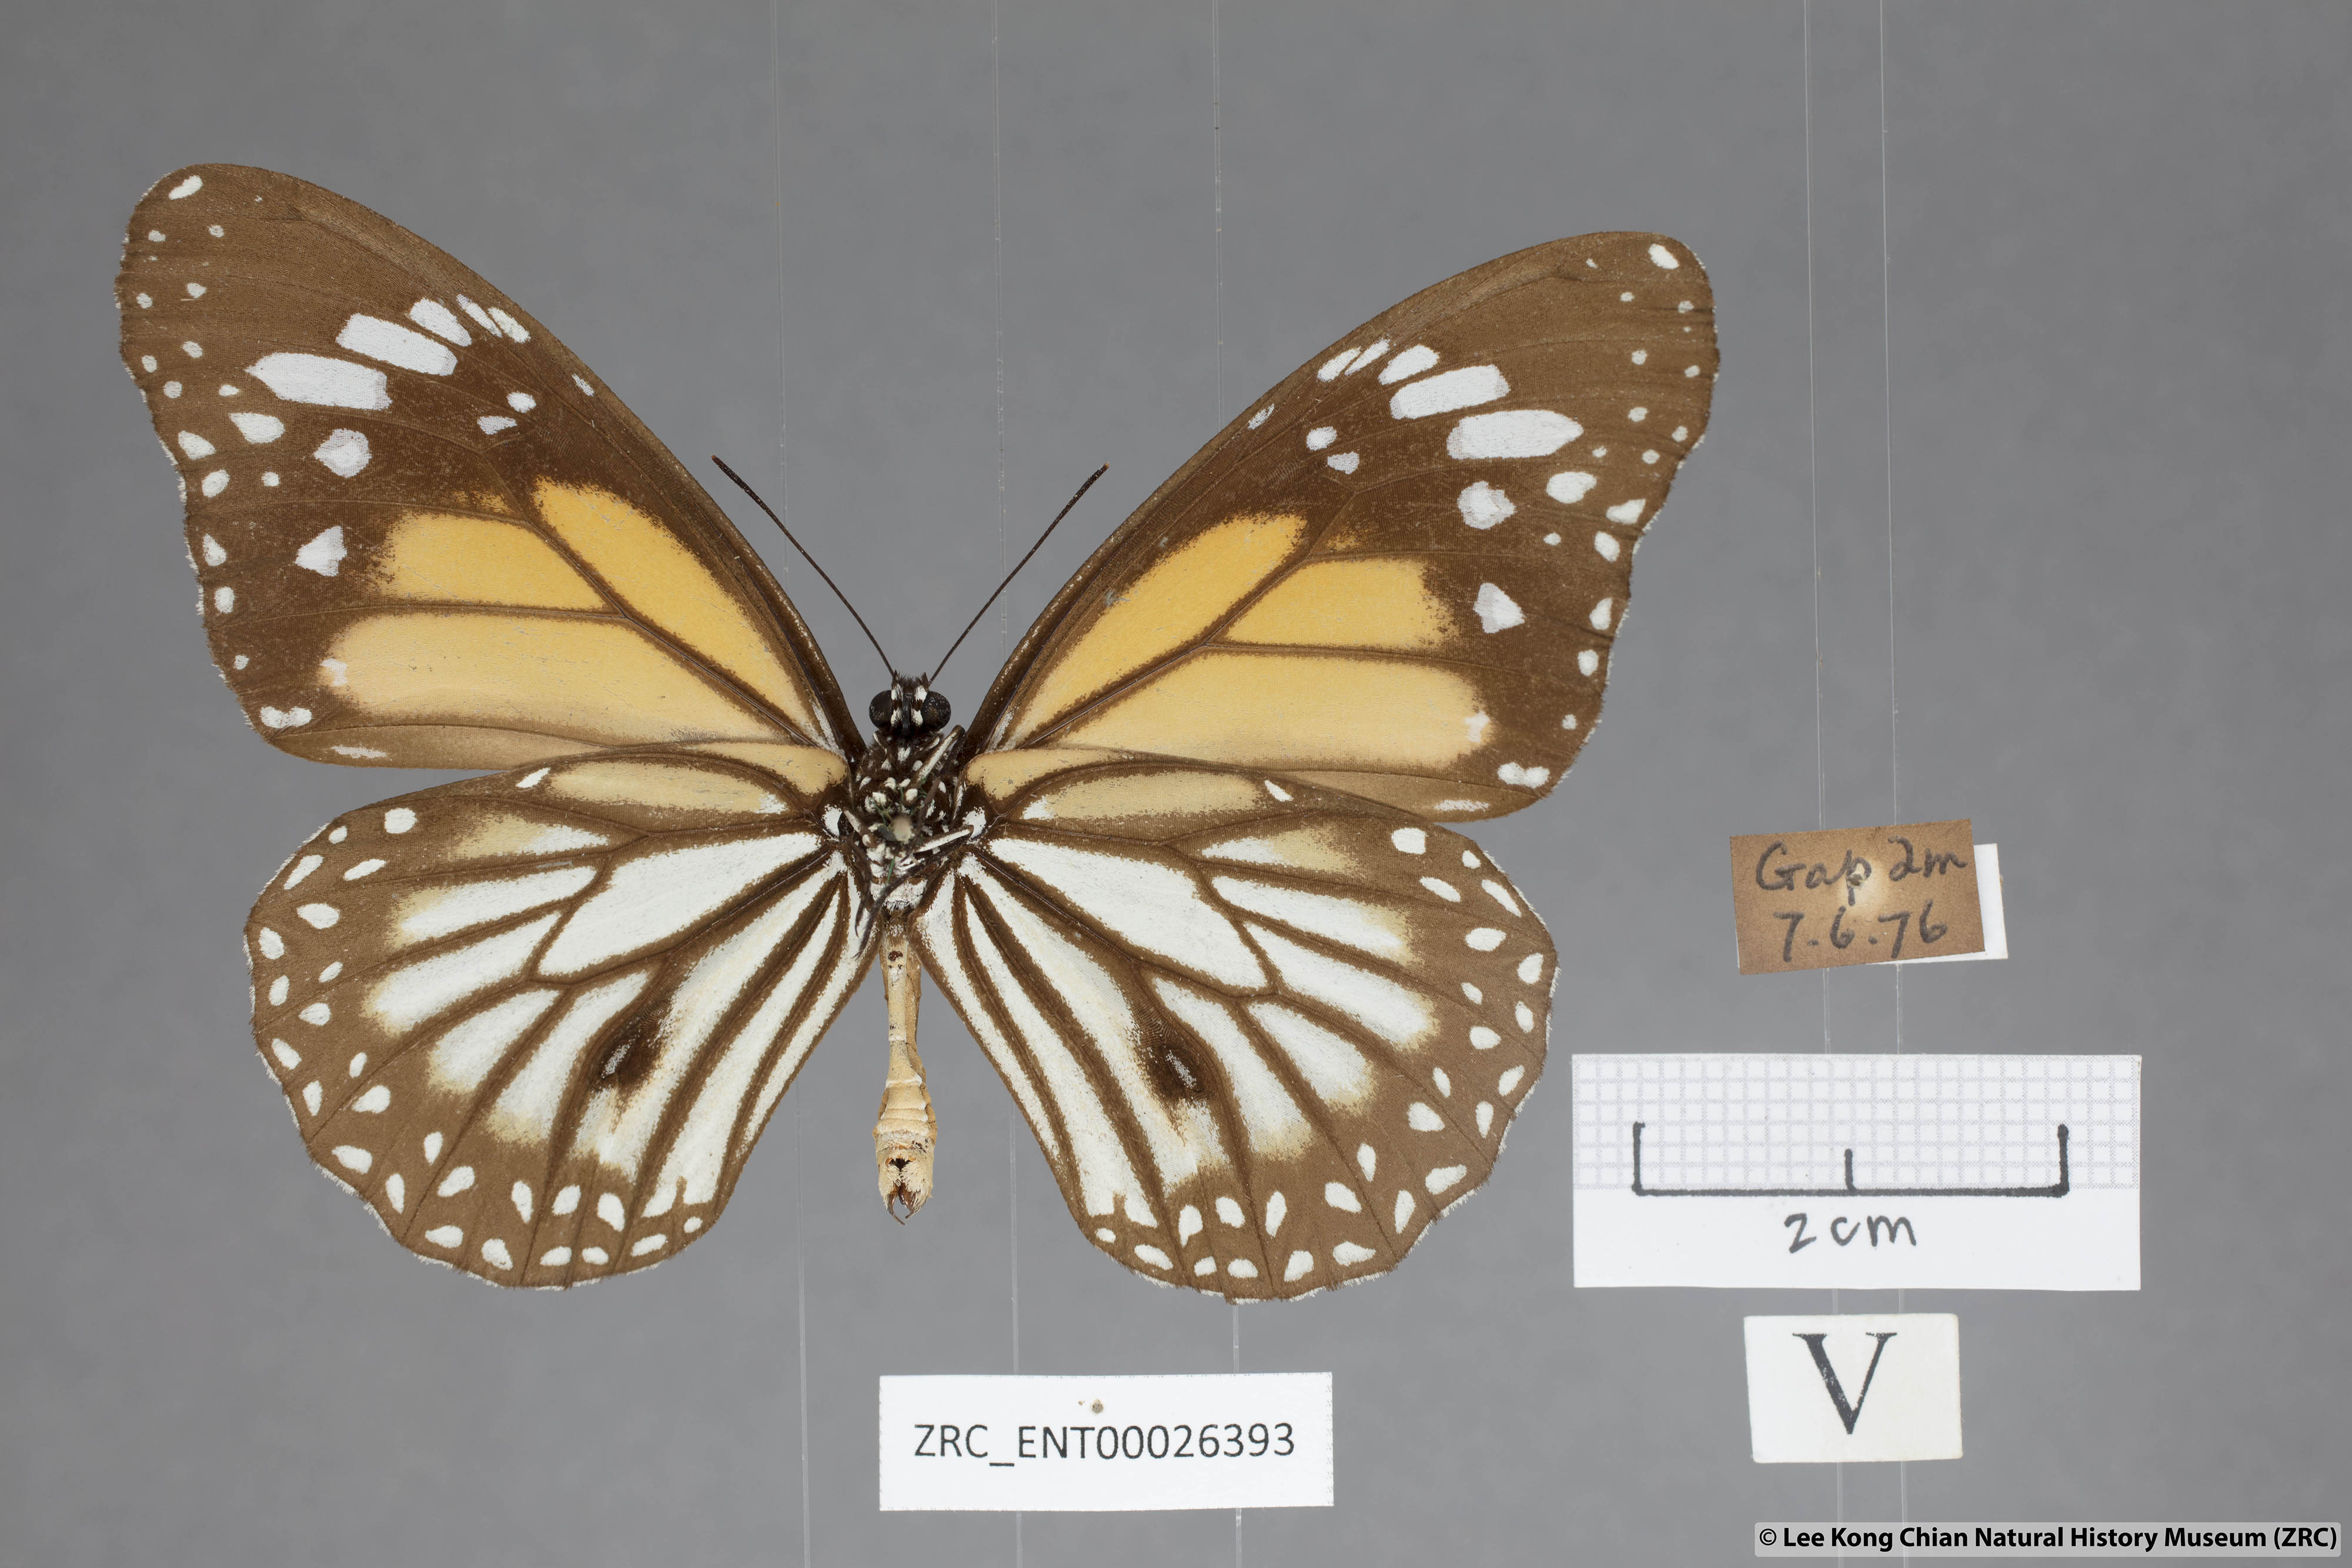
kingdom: Animalia
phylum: Arthropoda
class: Insecta
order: Lepidoptera
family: Nymphalidae
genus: Danaus
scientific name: Danaus melanippus
